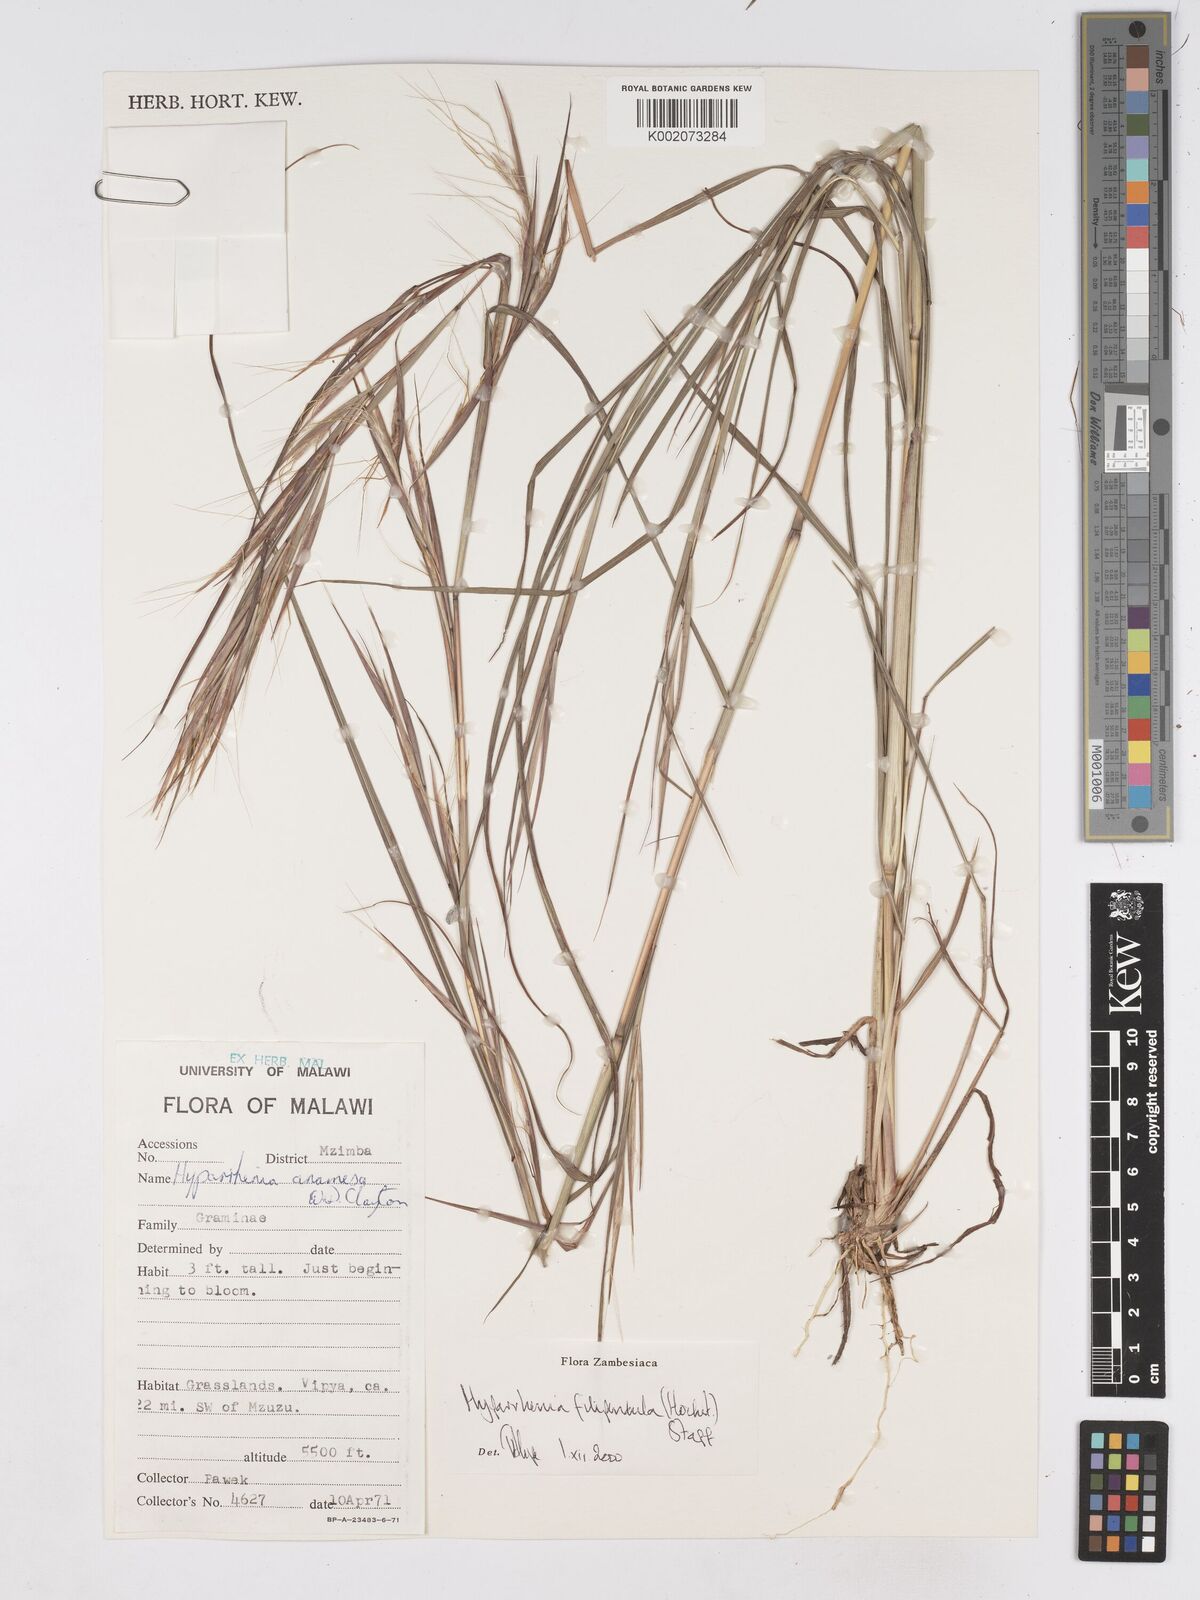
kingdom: Plantae
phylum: Tracheophyta
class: Liliopsida
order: Poales
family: Poaceae
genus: Hyparrhenia
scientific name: Hyparrhenia filipendula
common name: Tambookie grass
